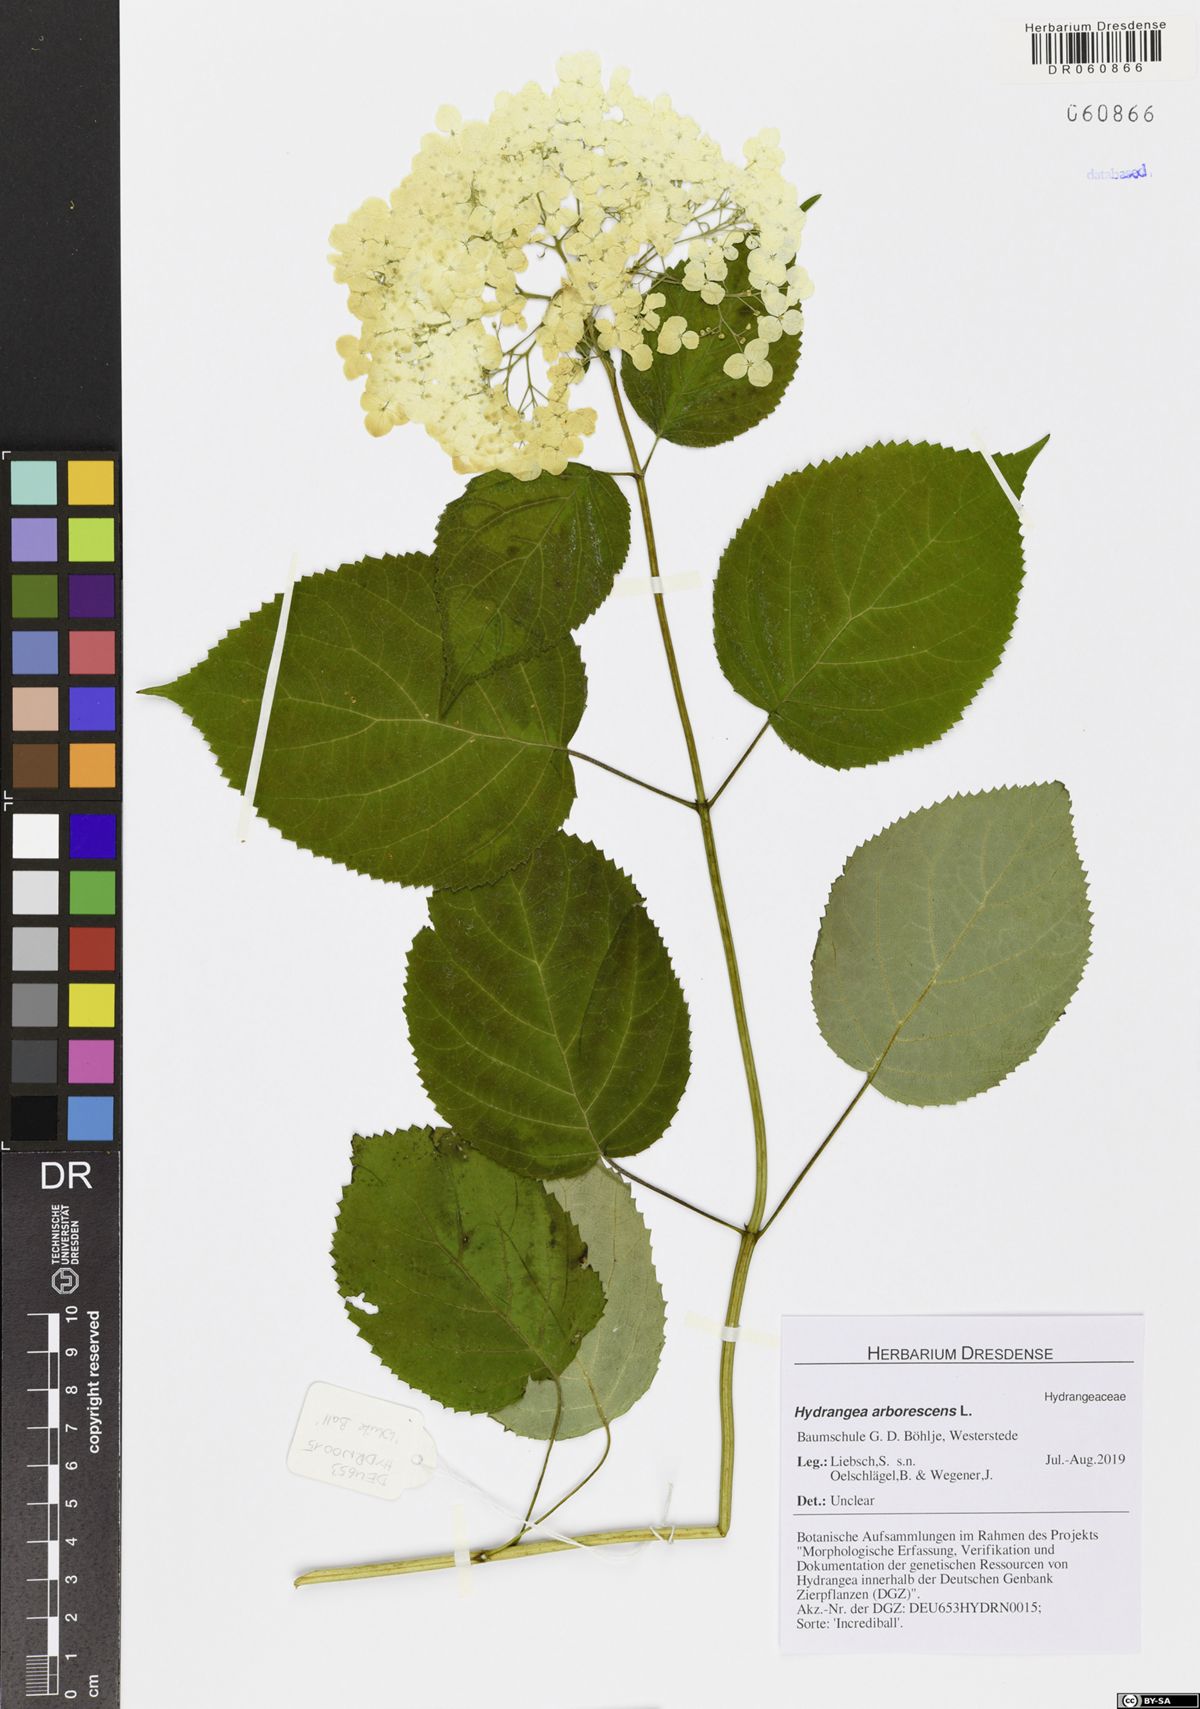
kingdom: Plantae
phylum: Tracheophyta
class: Magnoliopsida
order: Cornales
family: Hydrangeaceae
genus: Hydrangea
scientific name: Hydrangea quercifolia
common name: Oak-leaf hydrangea
